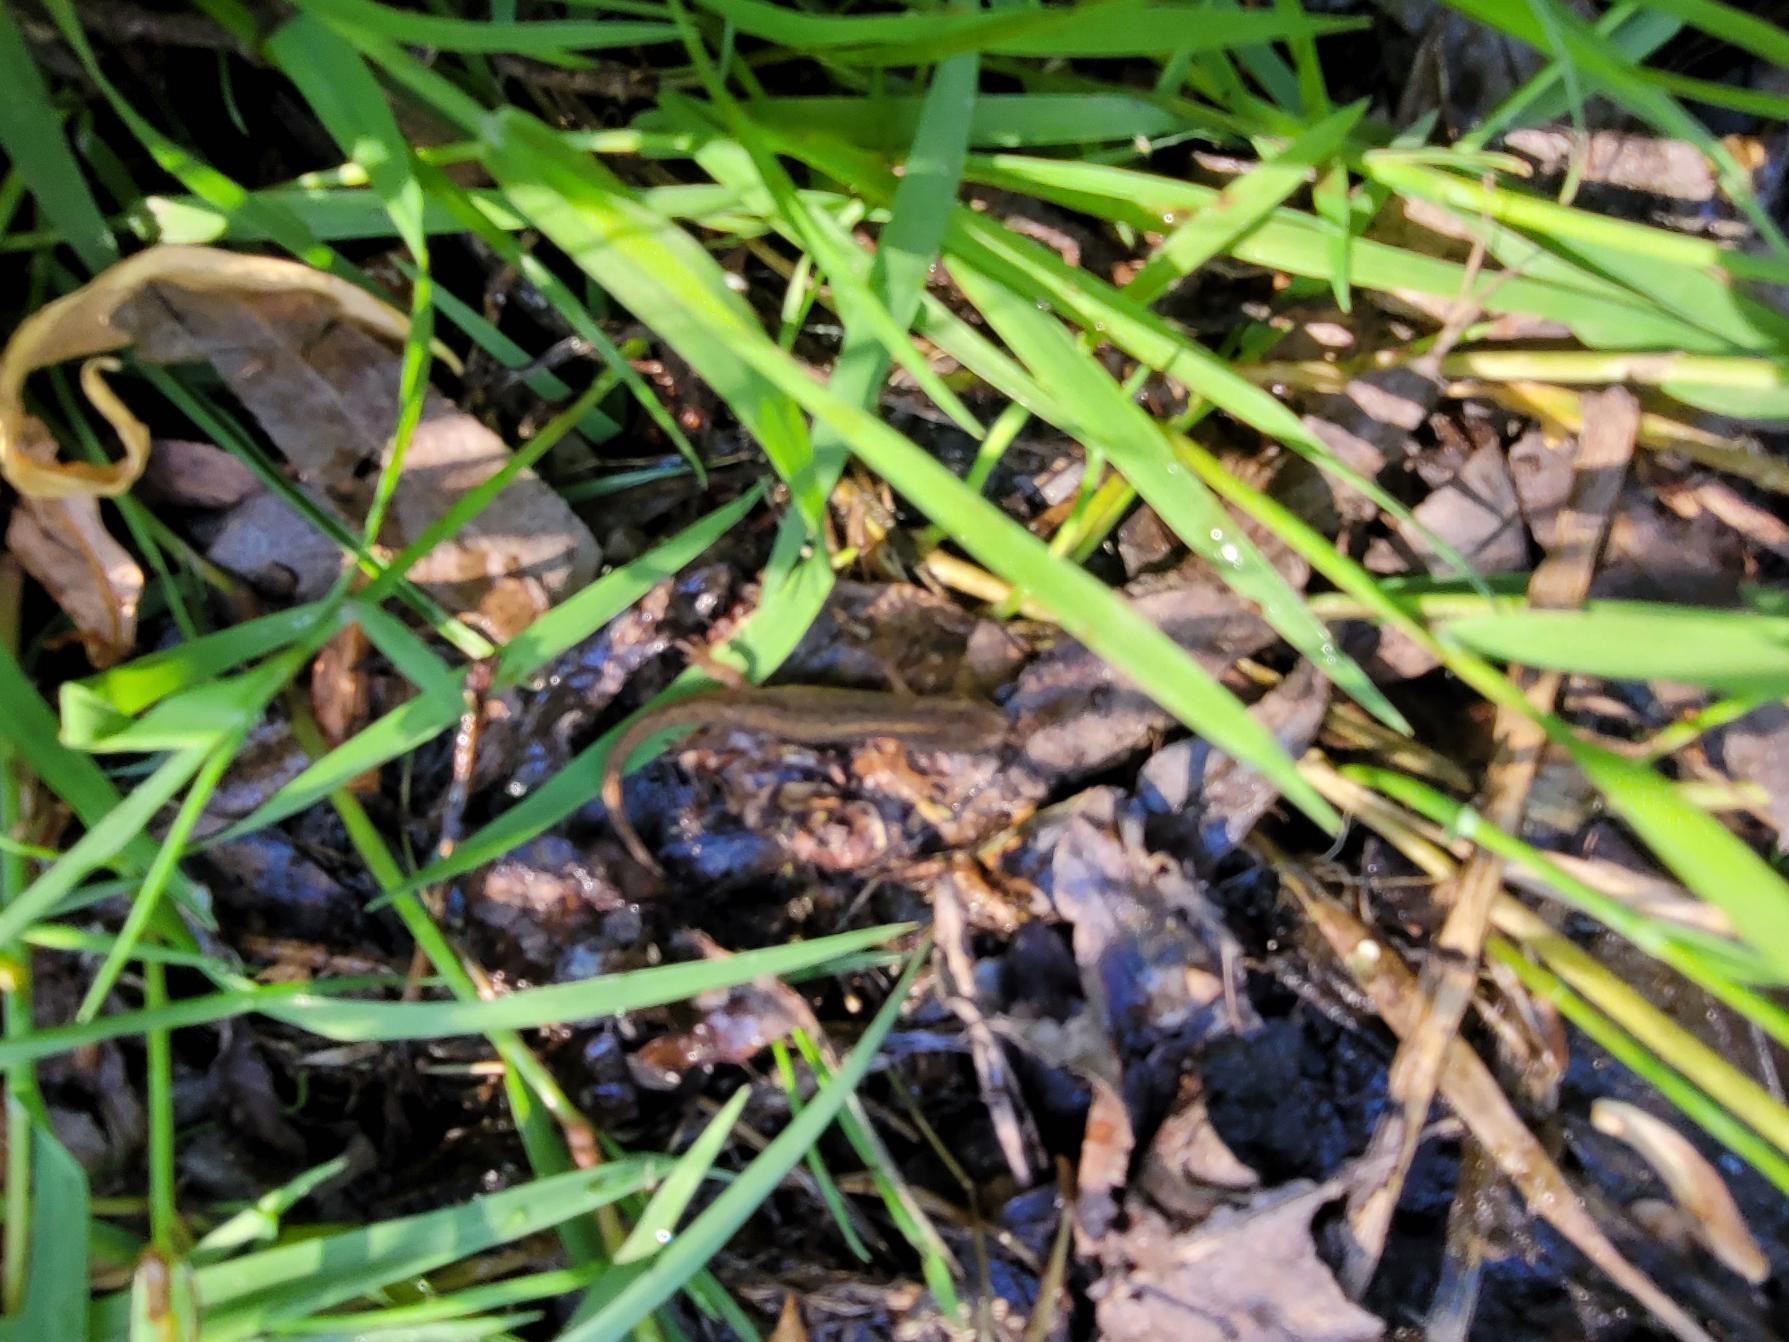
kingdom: Animalia
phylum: Chordata
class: Amphibia
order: Caudata
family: Salamandridae
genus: Lissotriton
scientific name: Lissotriton vulgaris
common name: Lille vandsalamander
